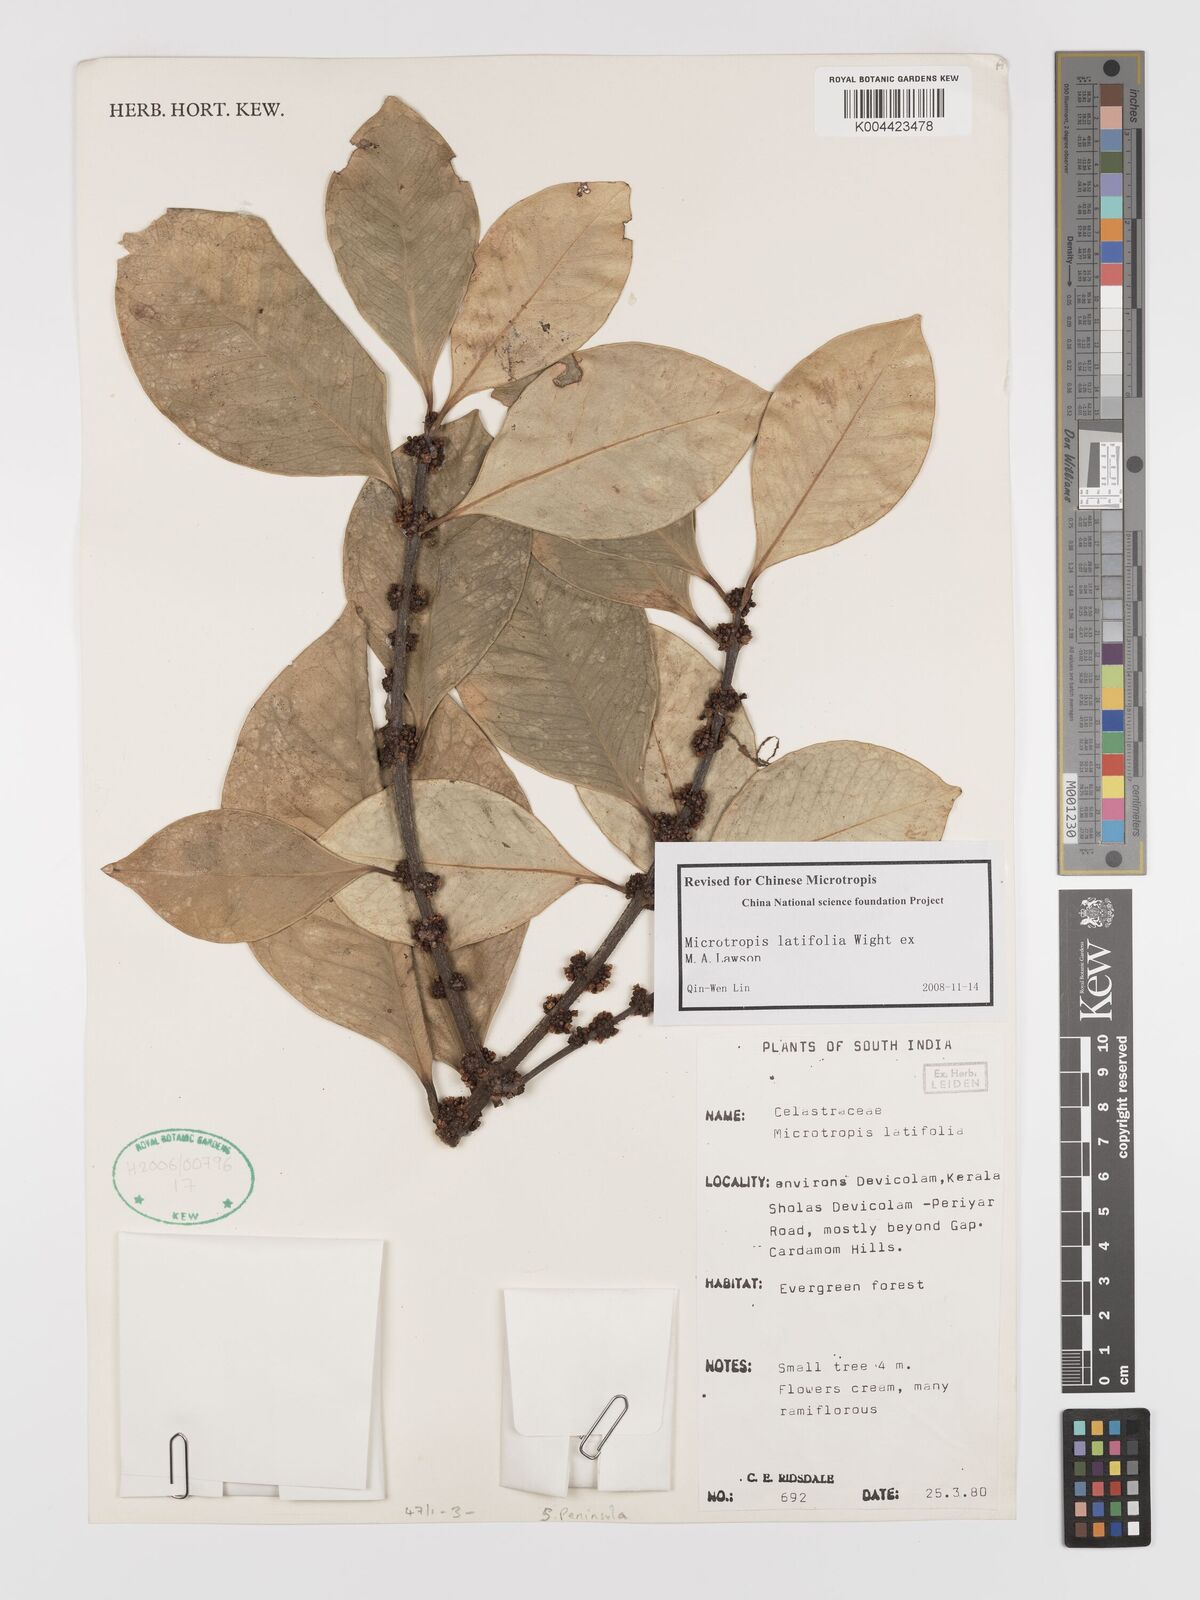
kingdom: Plantae
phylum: Tracheophyta
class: Magnoliopsida
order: Celastrales
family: Celastraceae
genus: Microtropis
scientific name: Microtropis latifolia
